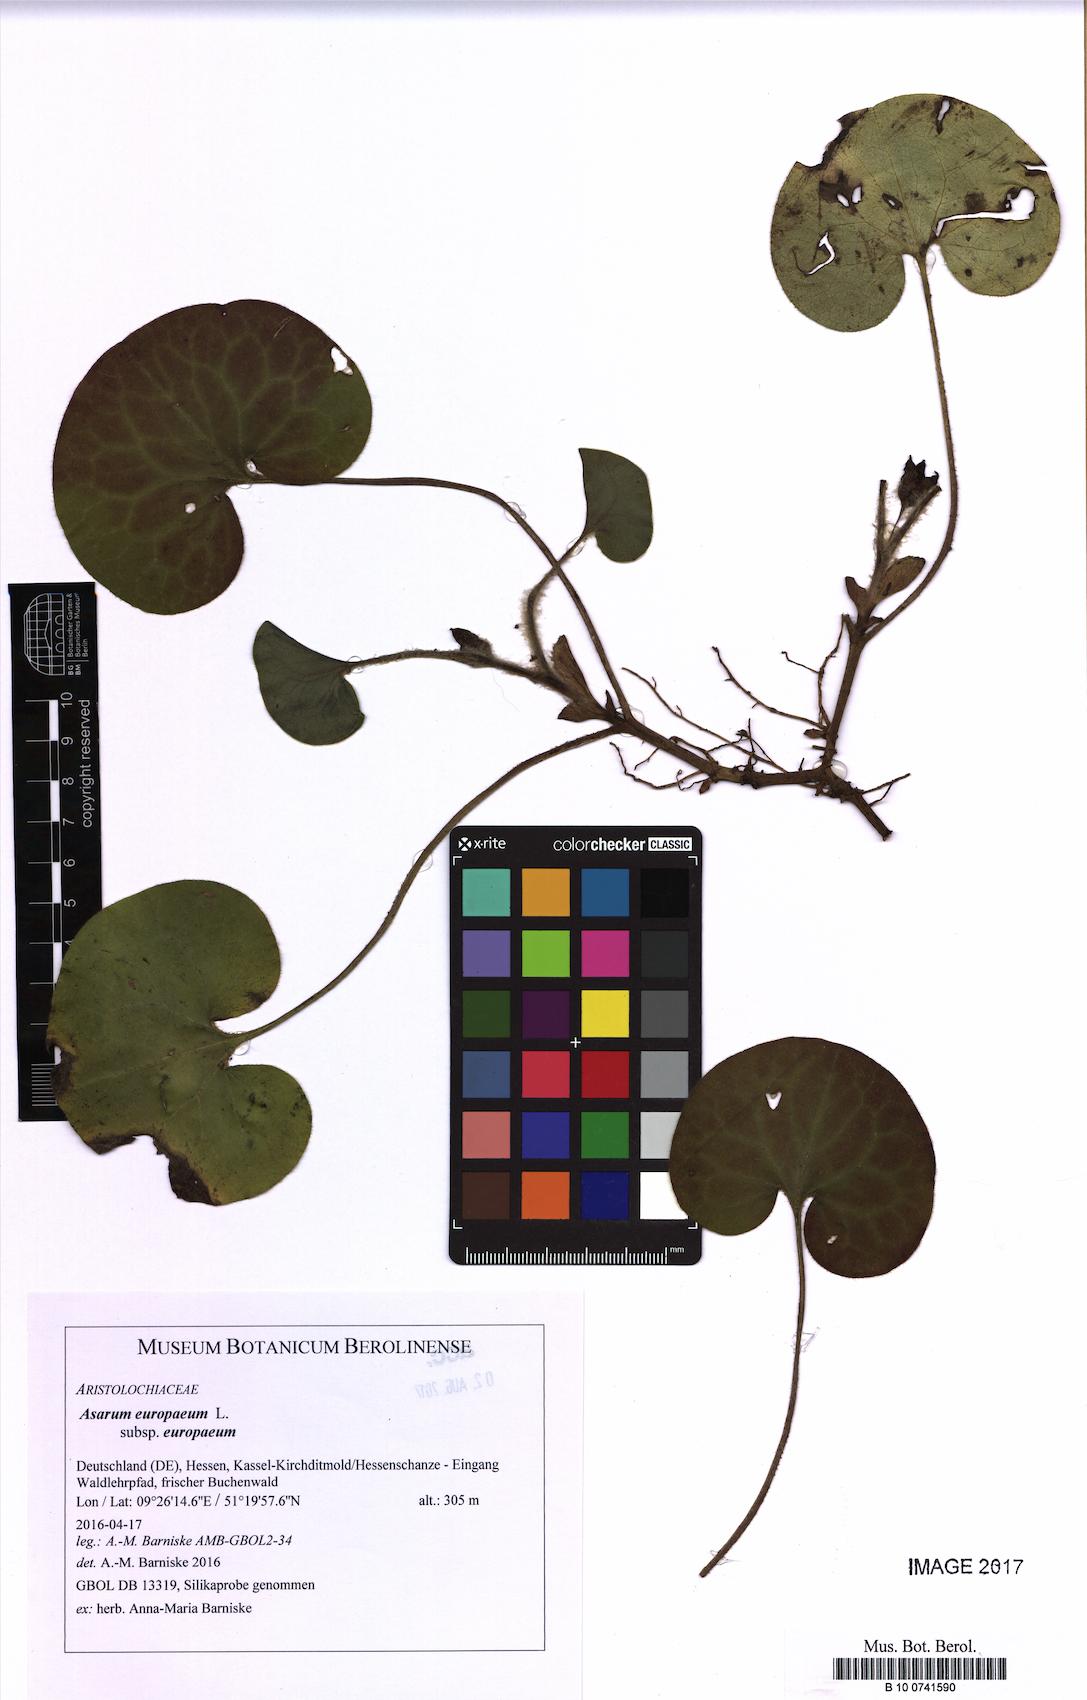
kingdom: Plantae
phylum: Tracheophyta
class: Magnoliopsida
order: Piperales
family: Aristolochiaceae
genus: Asarum
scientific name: Asarum europaeum
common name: Asarabacca
